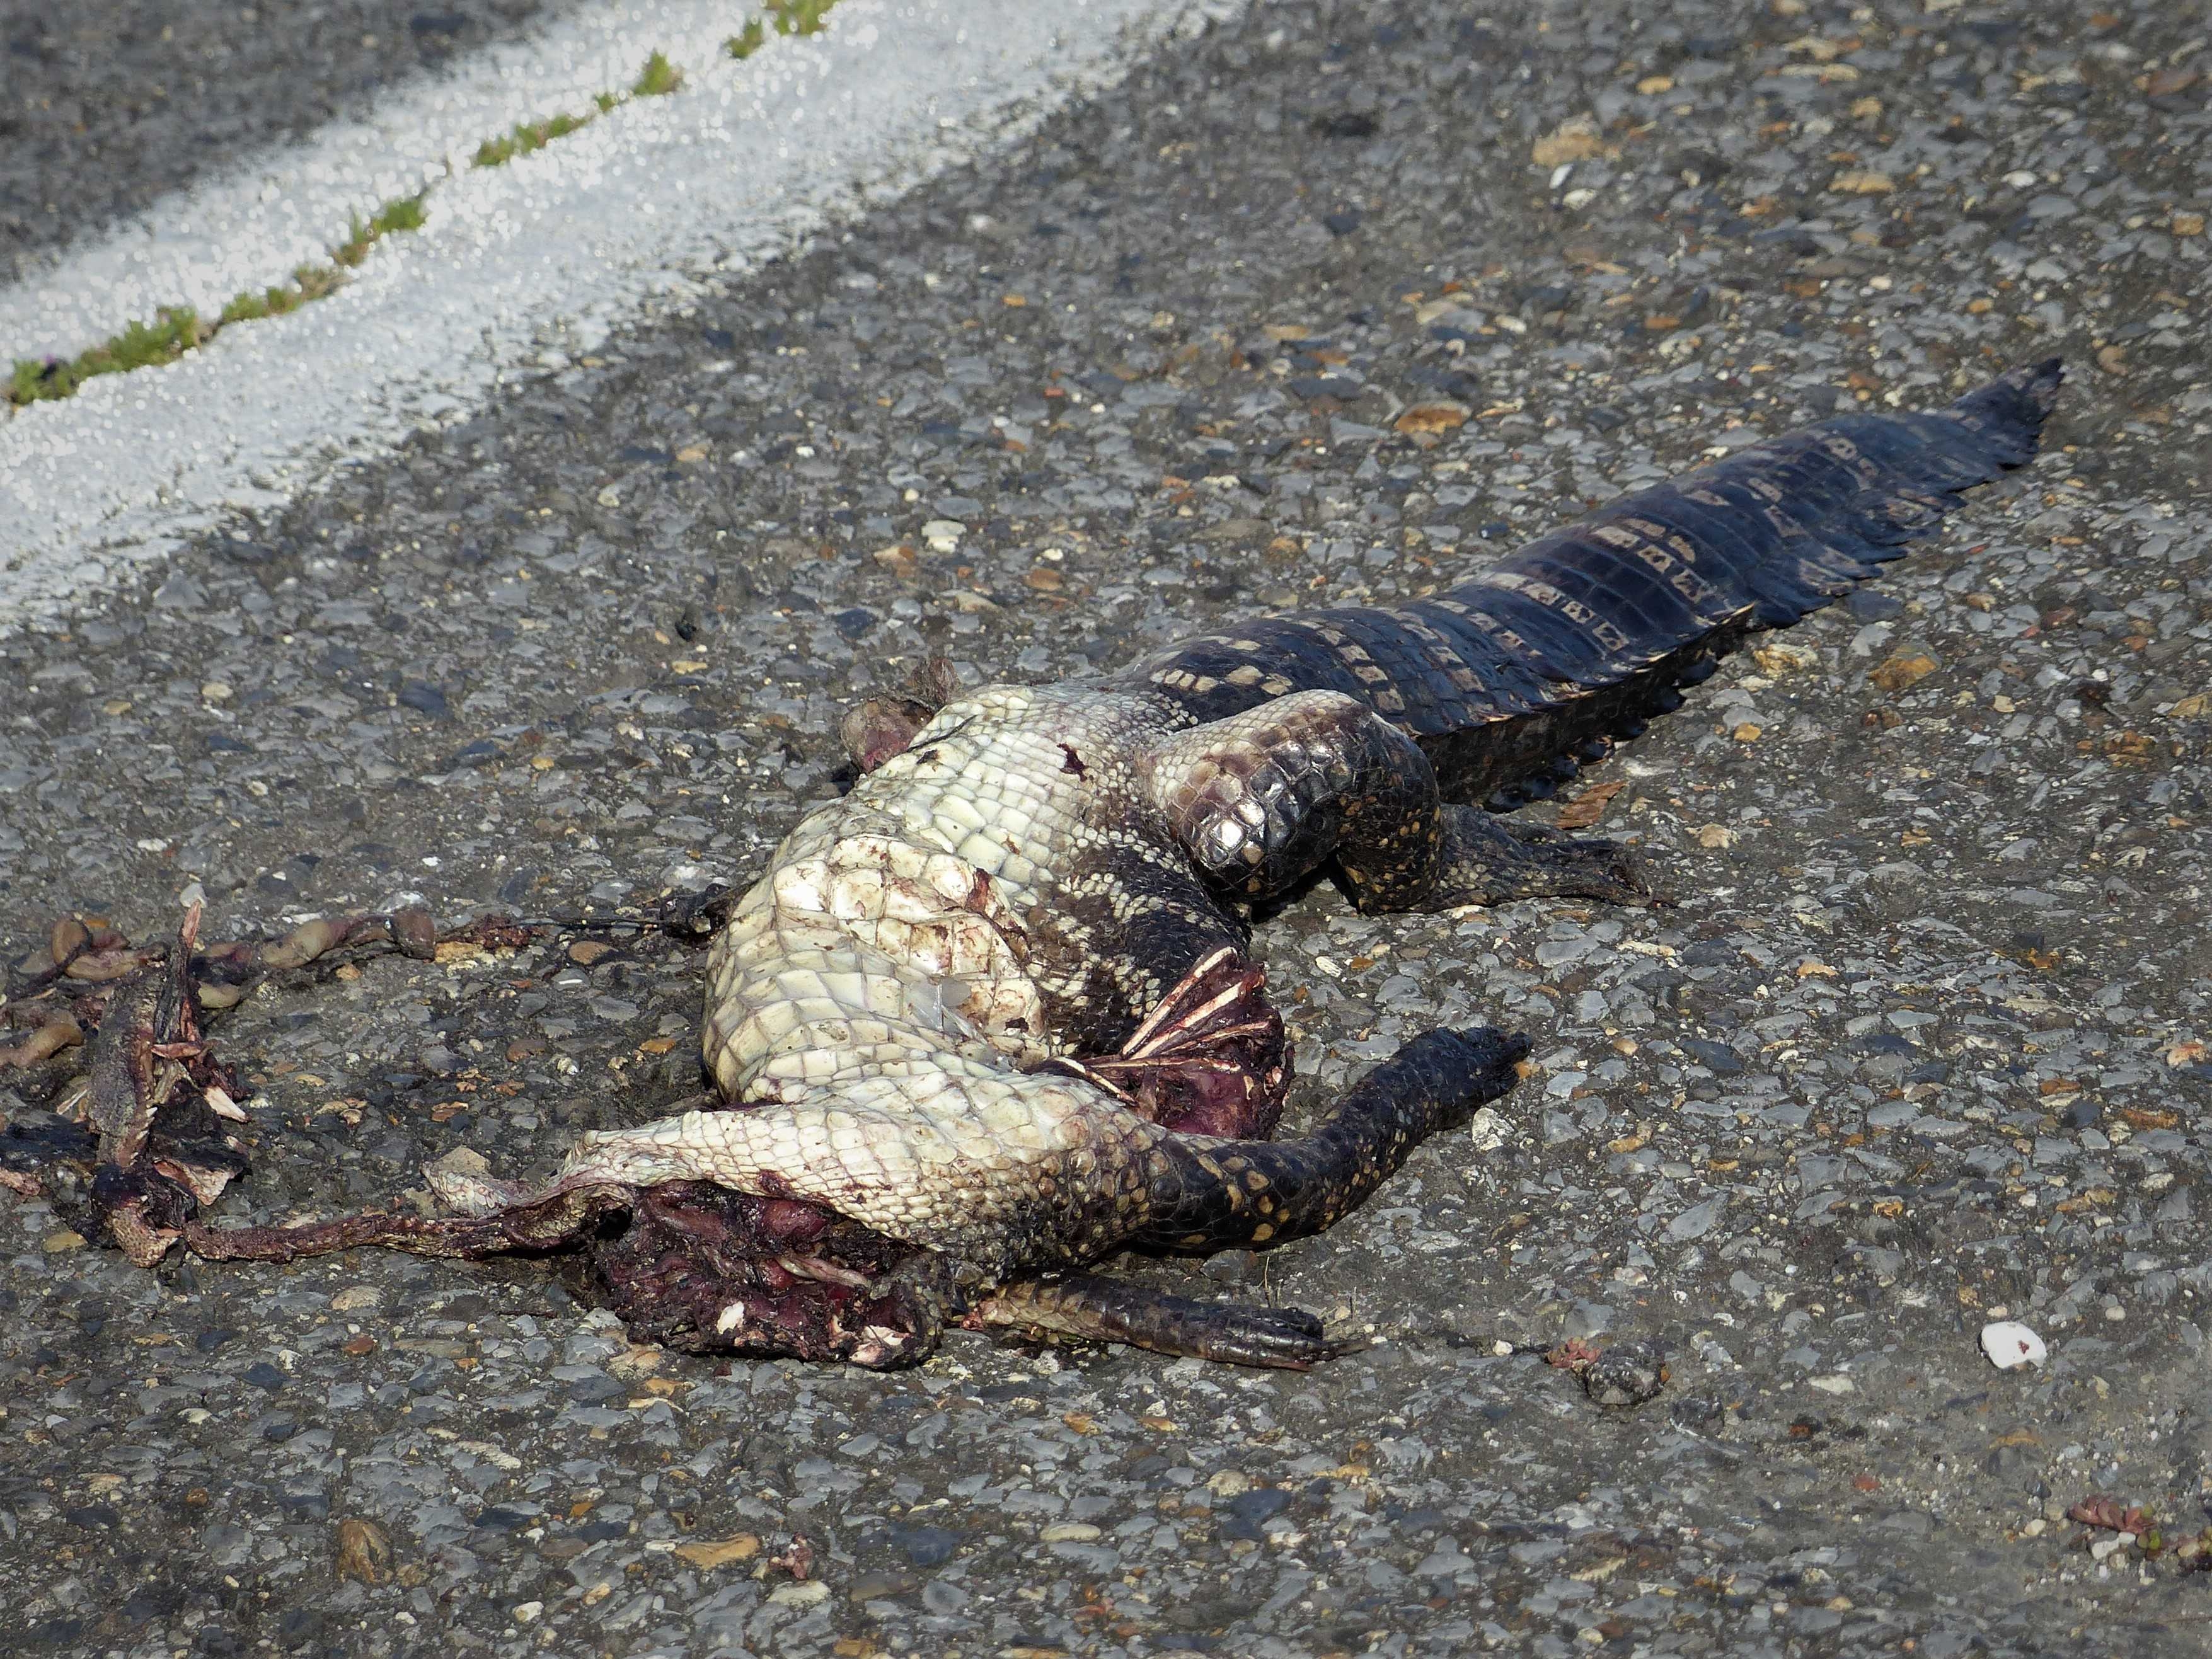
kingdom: Animalia
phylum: Chordata
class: Crocodylia
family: Alligatoridae
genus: Alligator
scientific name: Alligator mississippiensis
